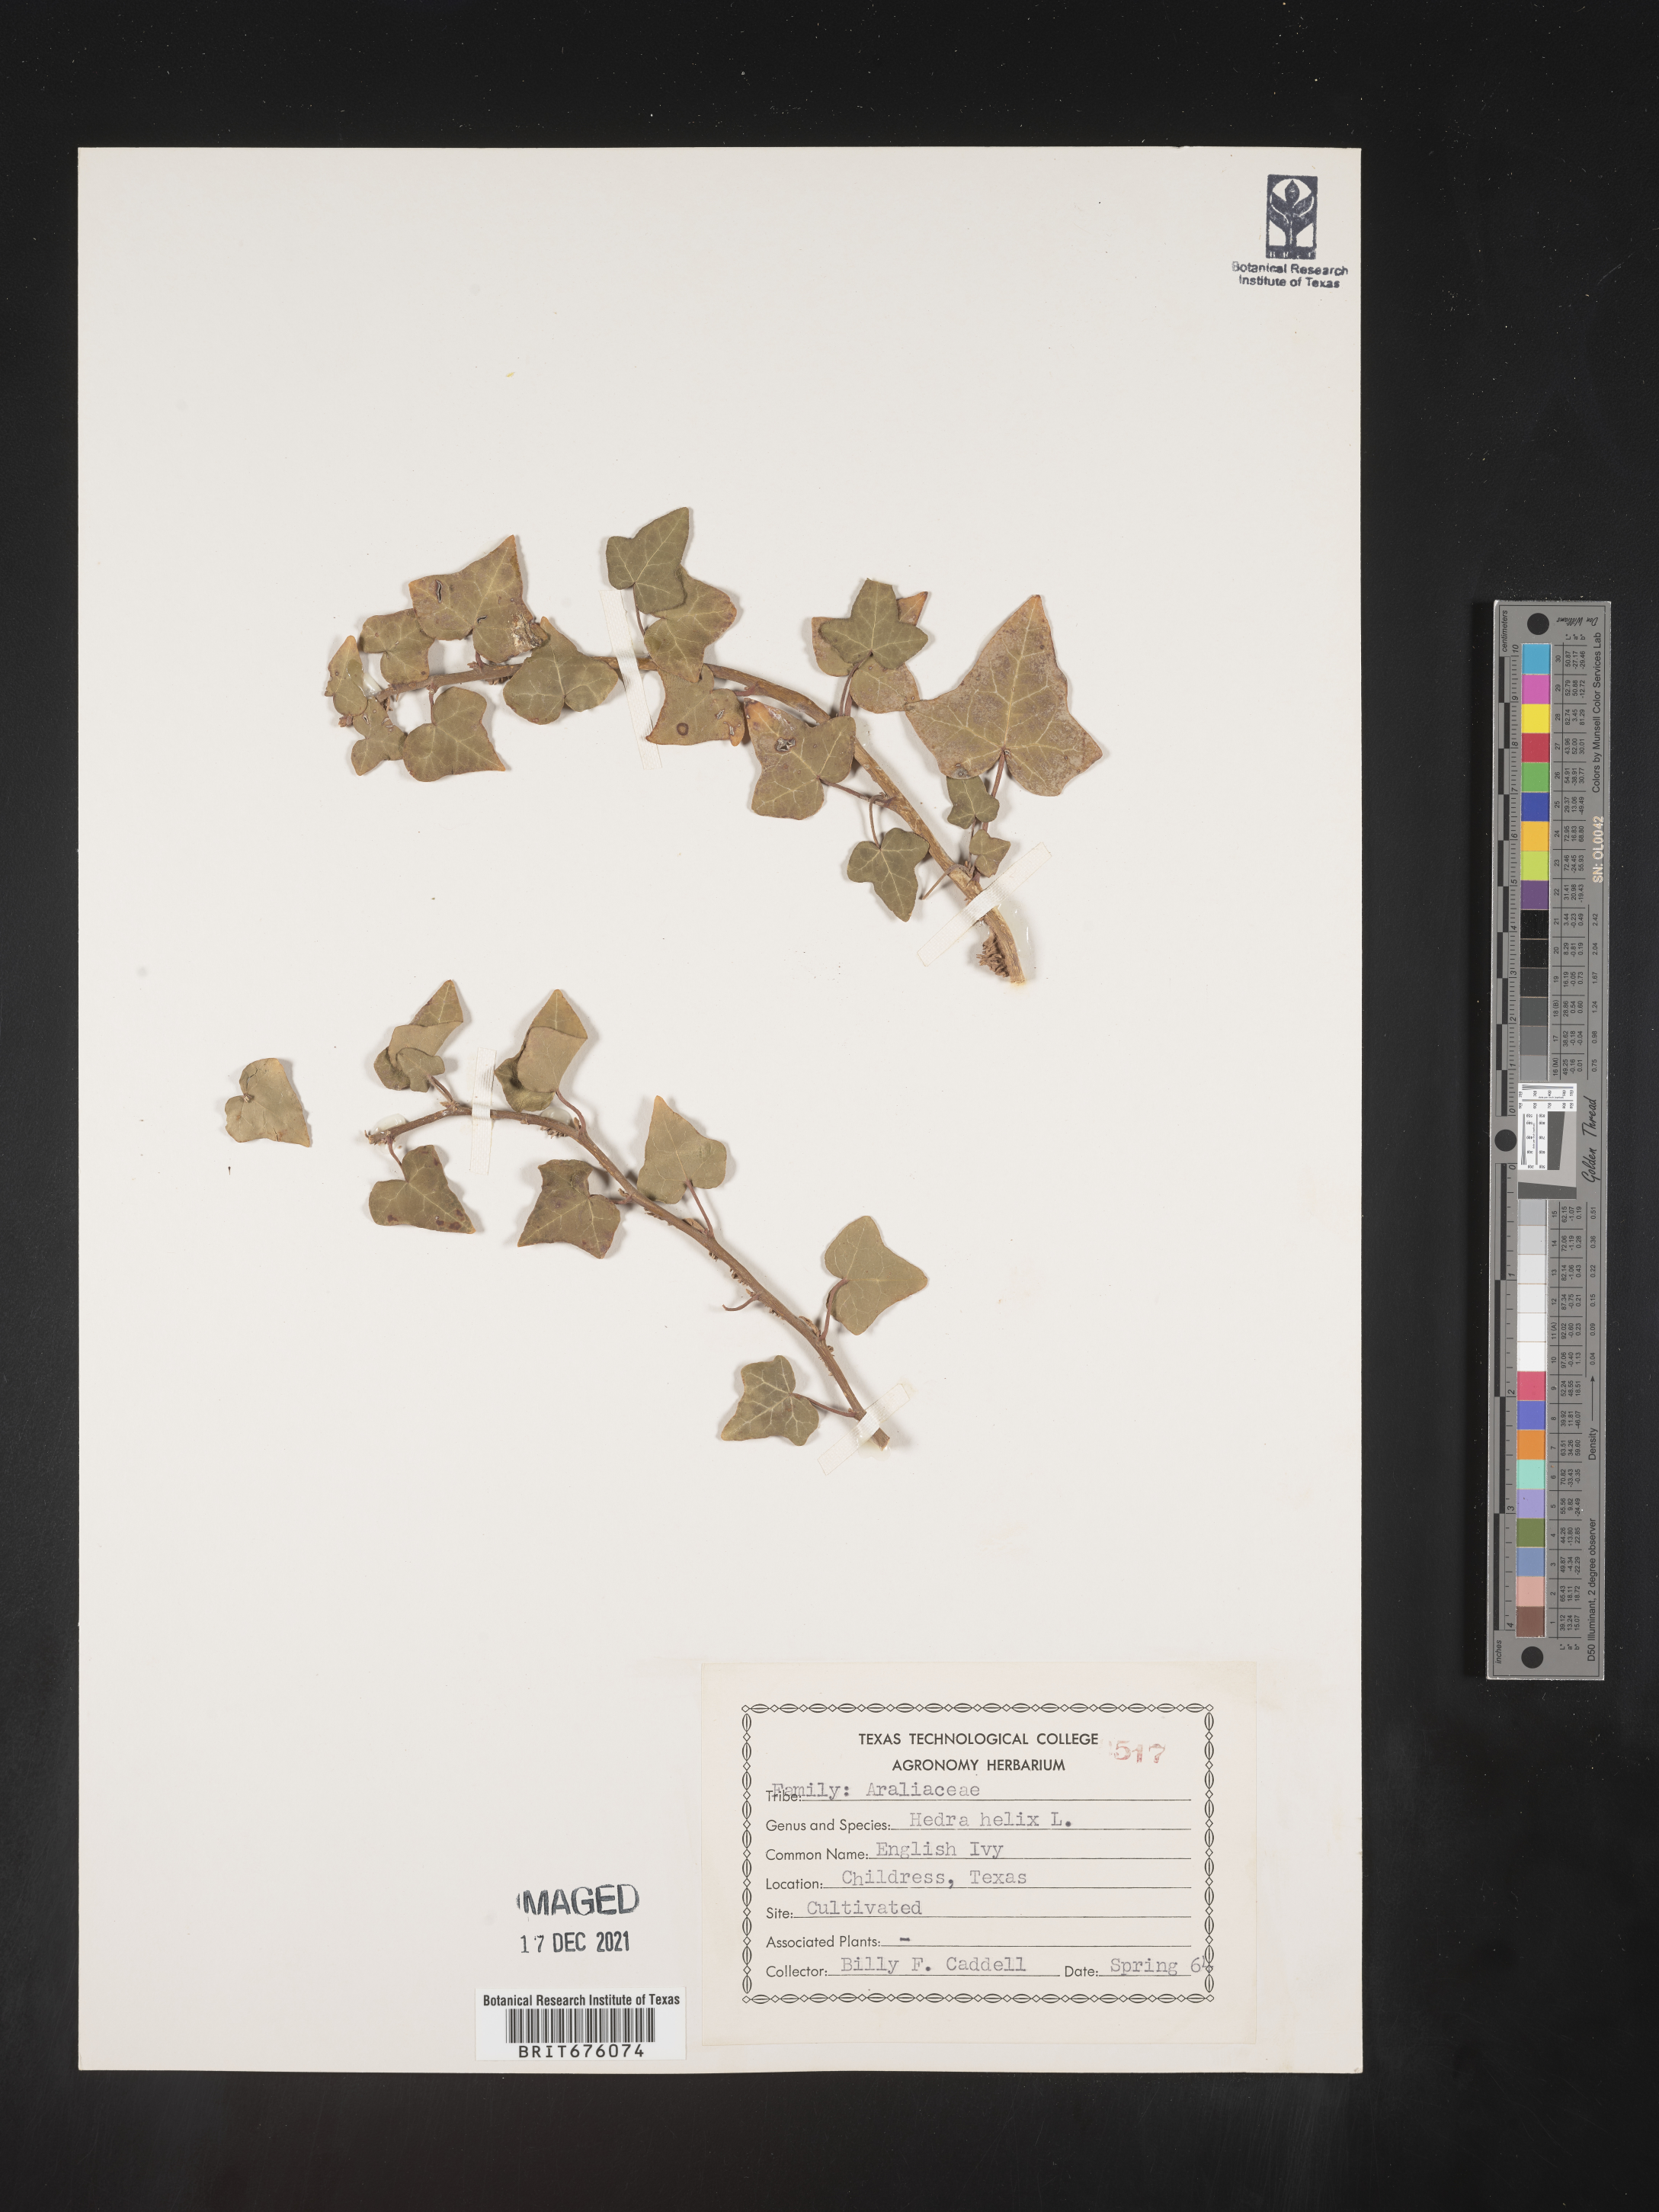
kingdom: Plantae
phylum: Tracheophyta
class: Magnoliopsida
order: Apiales
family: Araliaceae
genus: Hedera
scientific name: Hedera
